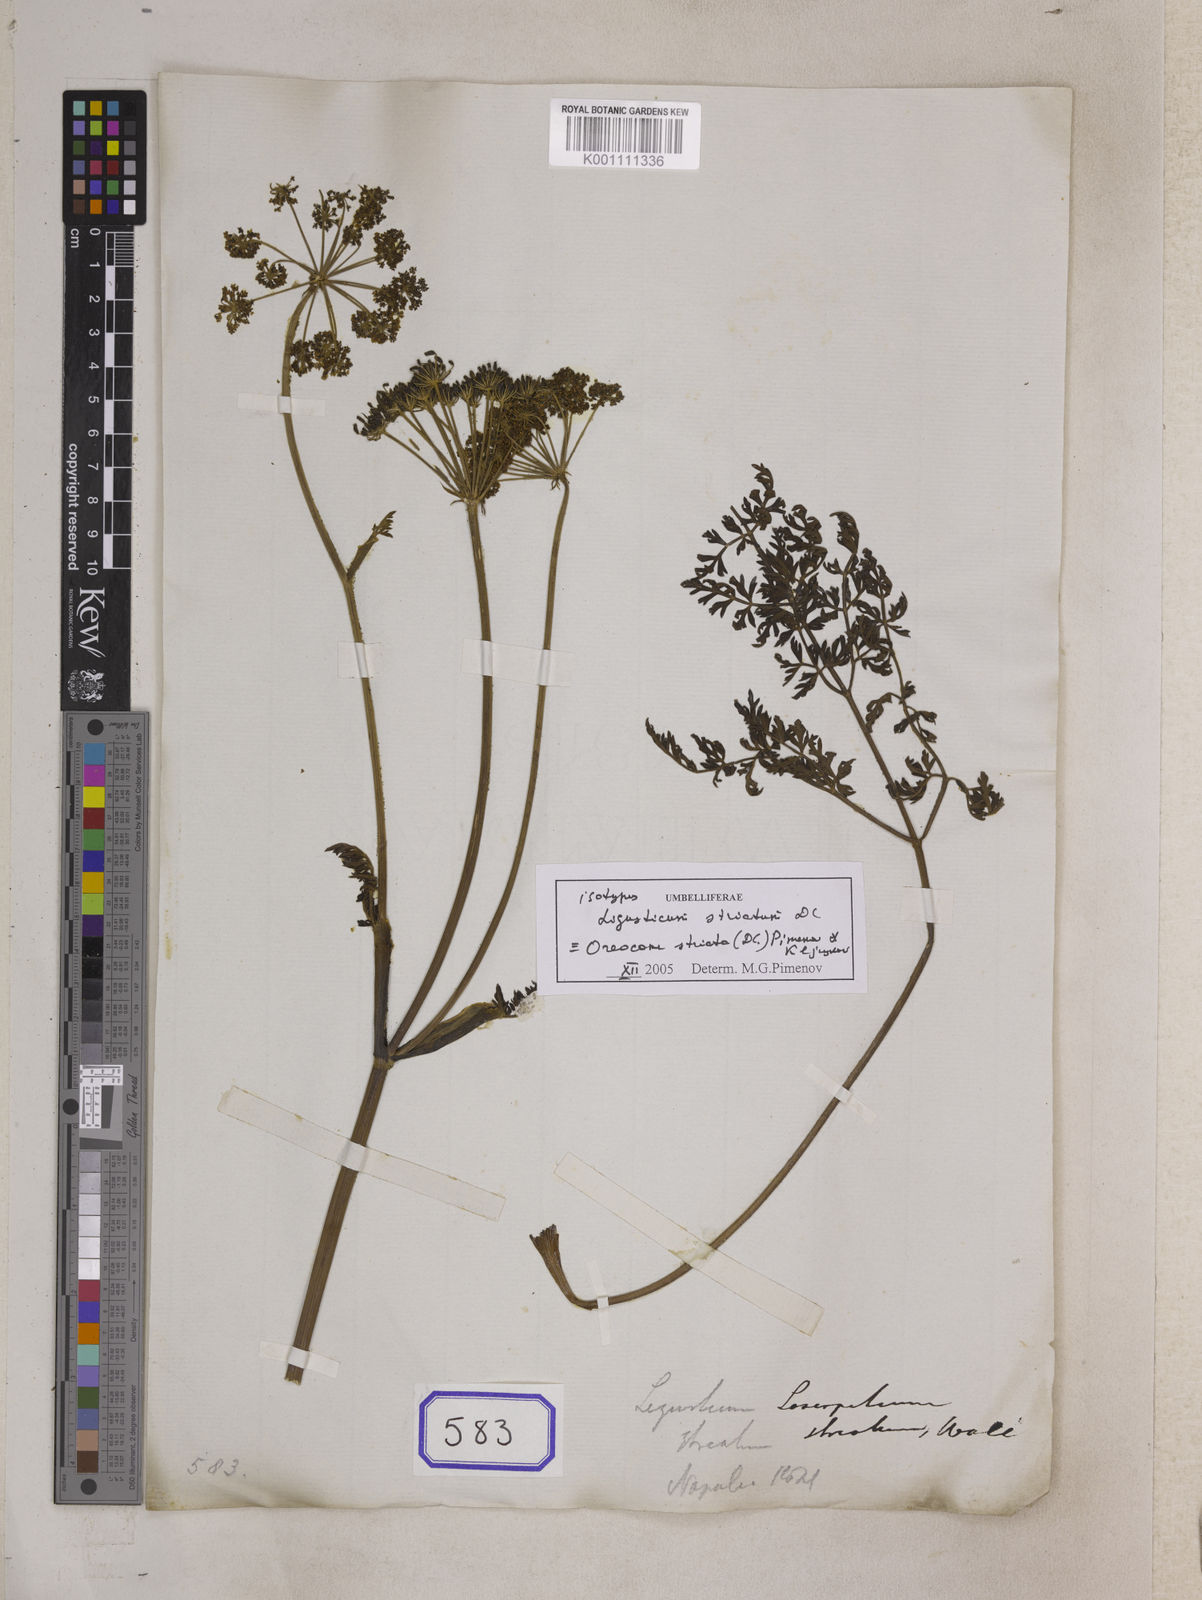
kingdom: Plantae
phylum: Tracheophyta
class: Magnoliopsida
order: Apiales
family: Apiaceae
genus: Oreocome
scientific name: Oreocome striata
